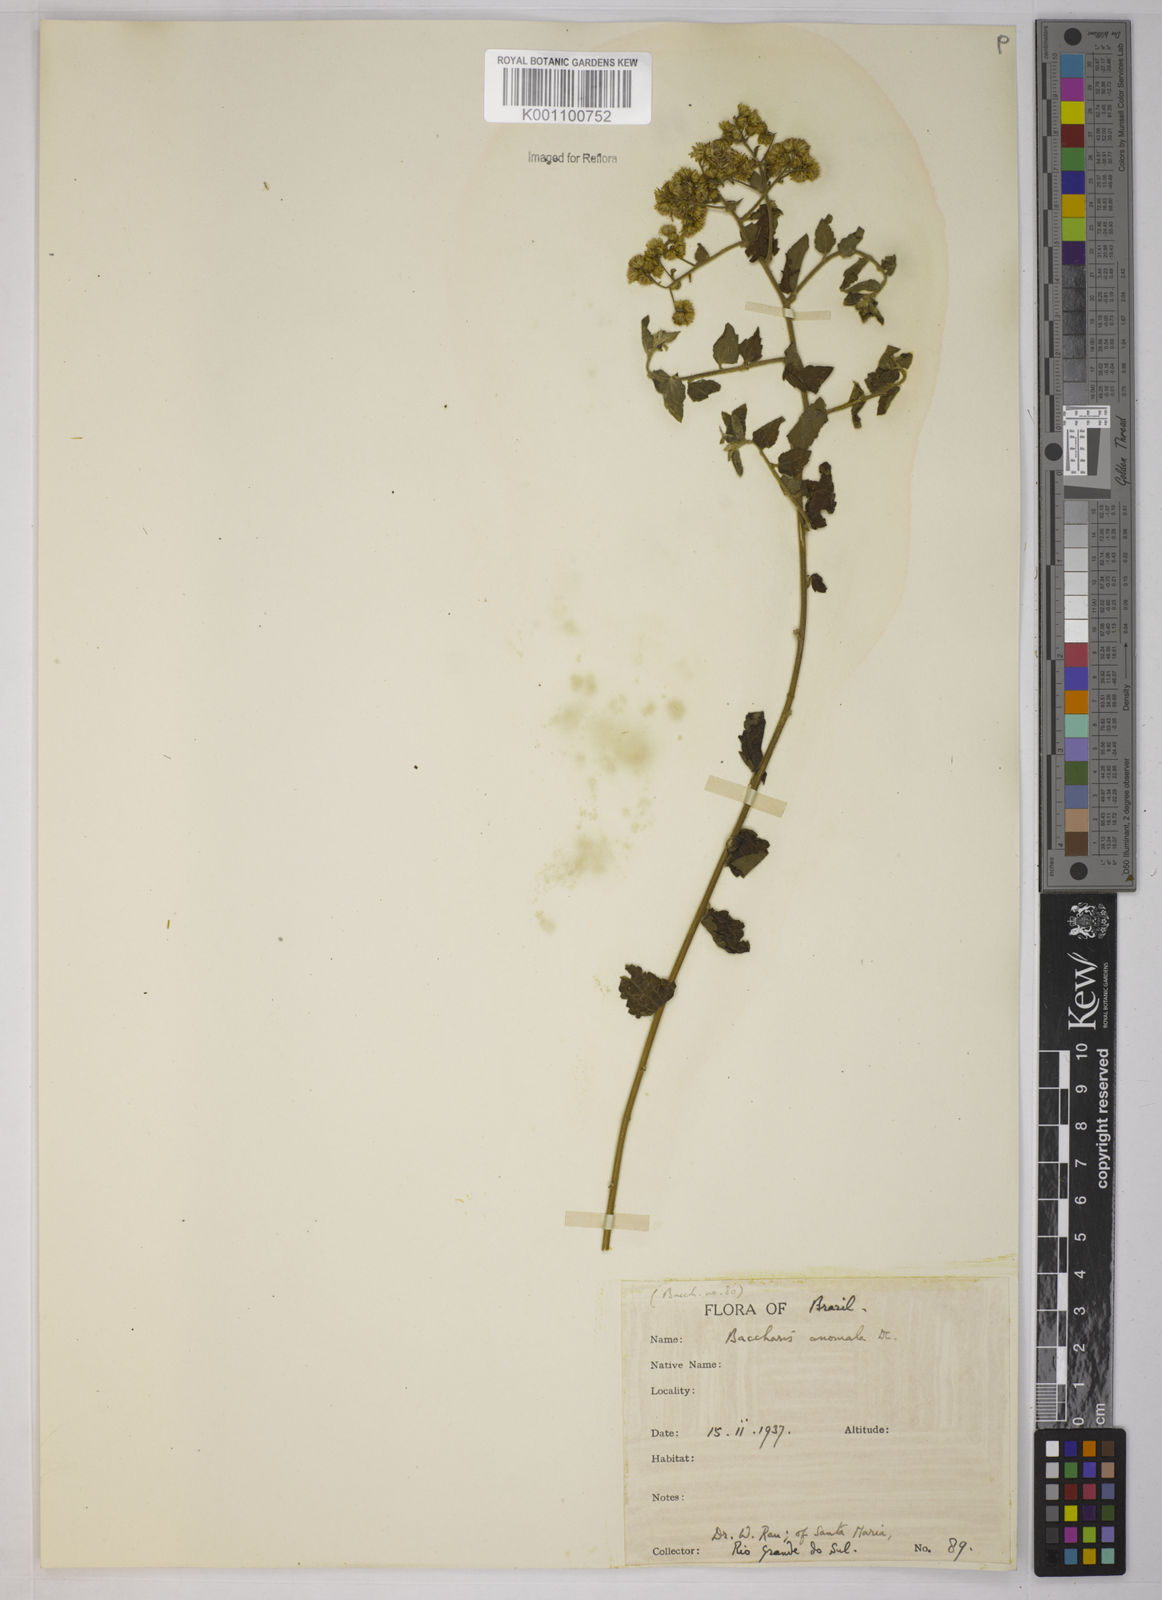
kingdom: Plantae
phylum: Tracheophyta
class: Magnoliopsida
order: Asterales
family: Asteraceae
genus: Baccharis
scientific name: Baccharis anomala
